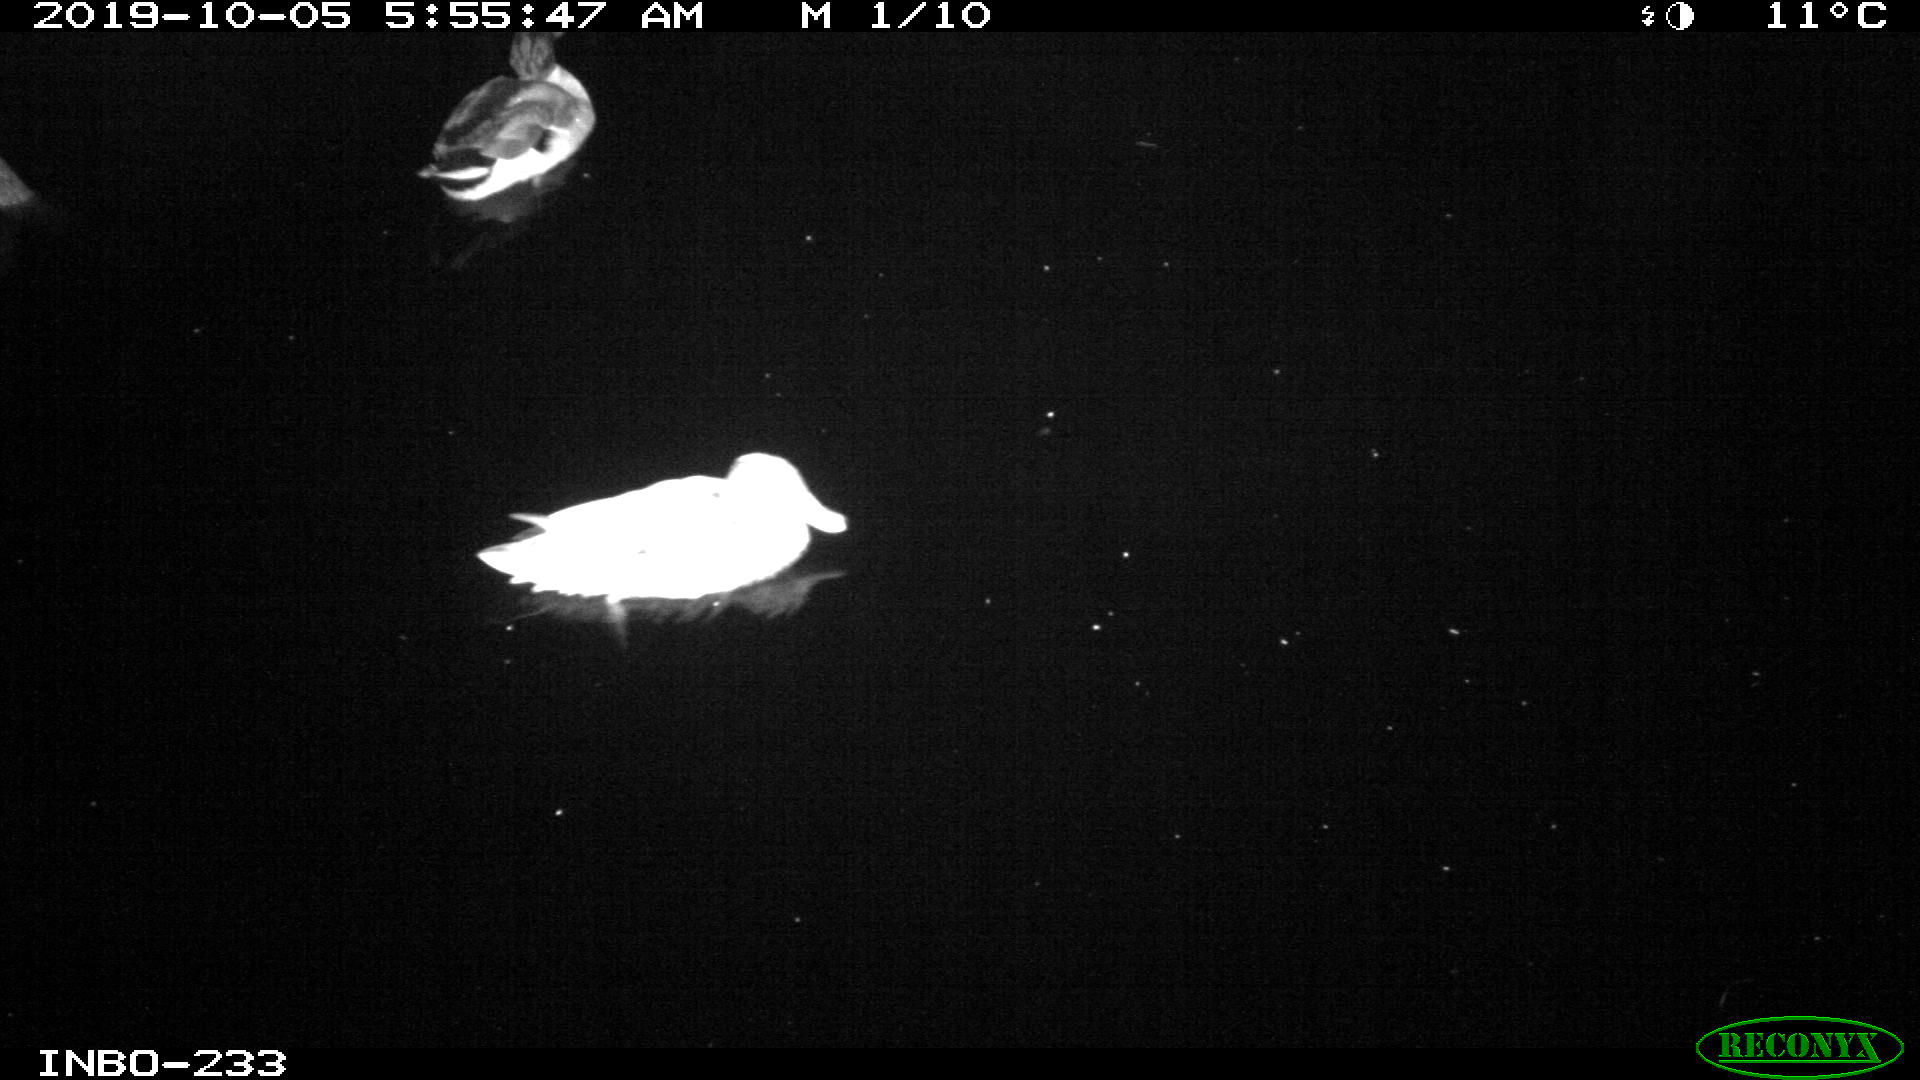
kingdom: Animalia
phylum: Chordata
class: Aves
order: Anseriformes
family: Anatidae
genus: Anas
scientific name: Anas platyrhynchos
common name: Mallard
